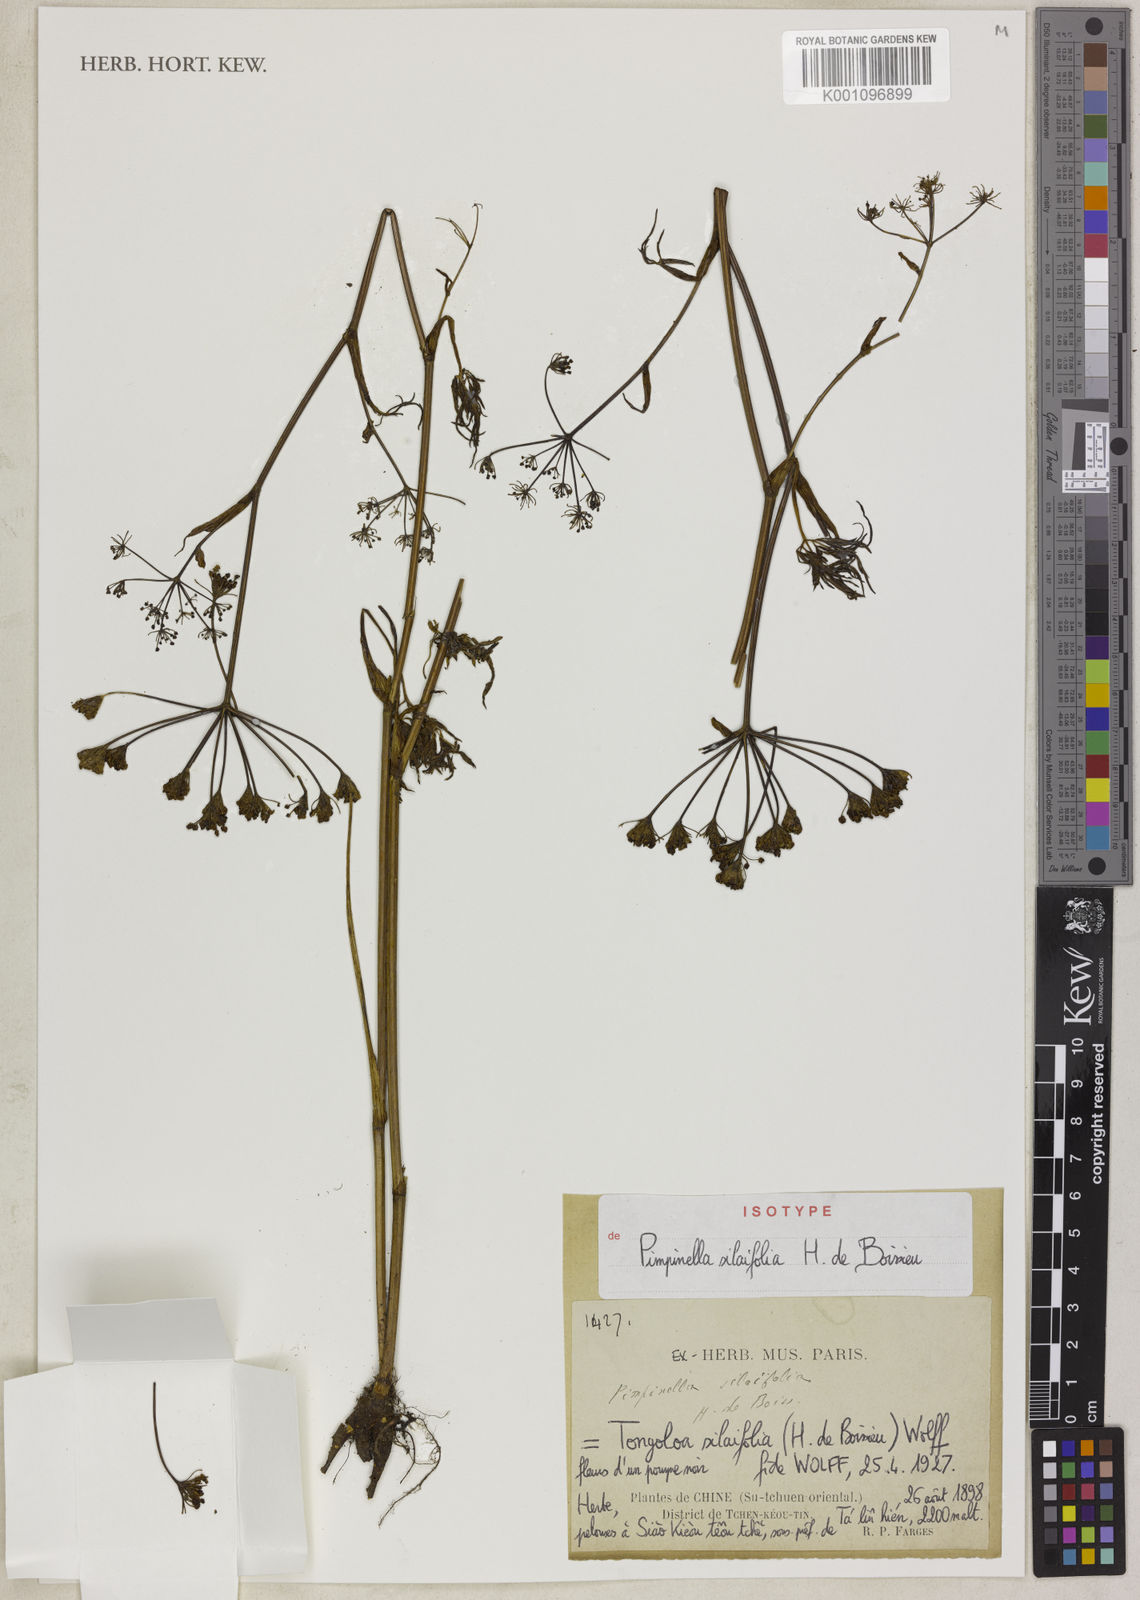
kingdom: Plantae
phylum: Tracheophyta
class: Magnoliopsida
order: Apiales
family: Apiaceae
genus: Tongoloa
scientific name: Tongoloa silaifolia
